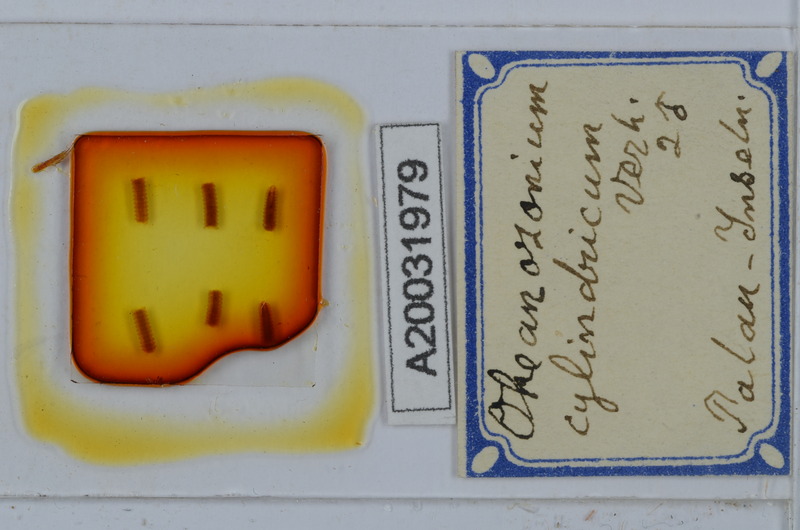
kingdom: Animalia
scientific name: Animalia
